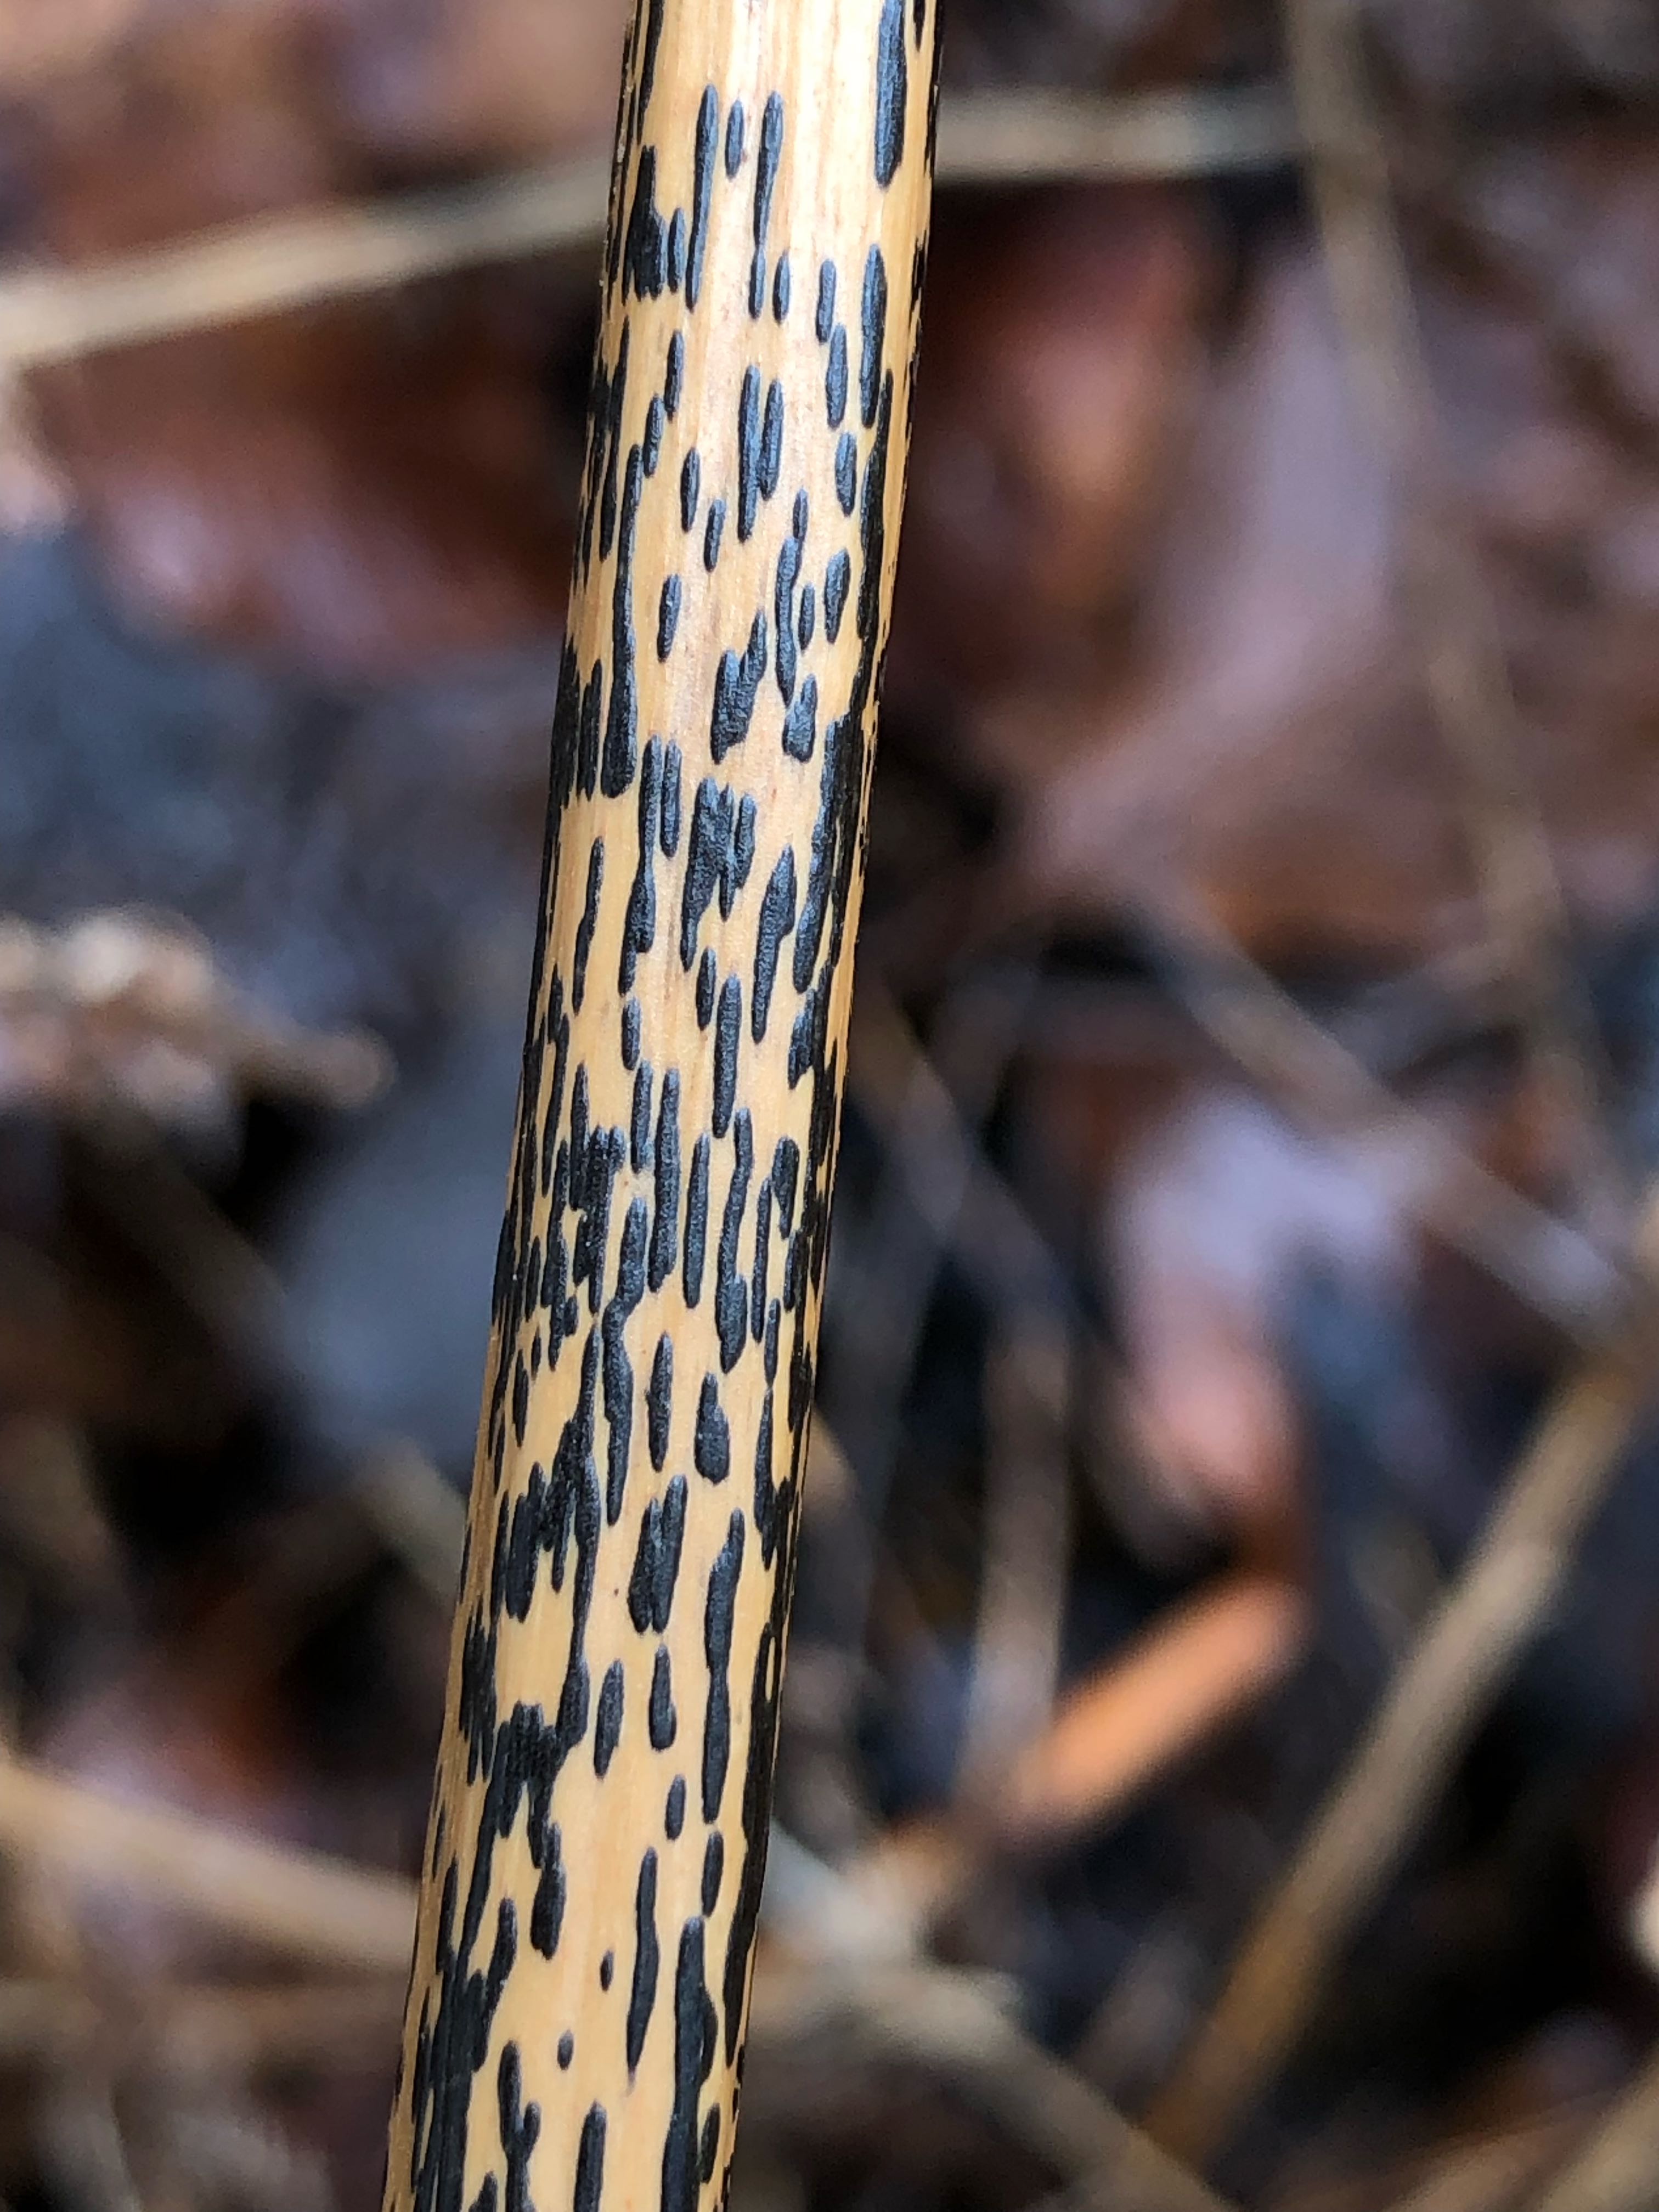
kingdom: Fungi
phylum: Ascomycota
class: Dothideomycetes
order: Pleosporales
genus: Rhopographus
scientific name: Rhopographus filicinus
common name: Bracken map
